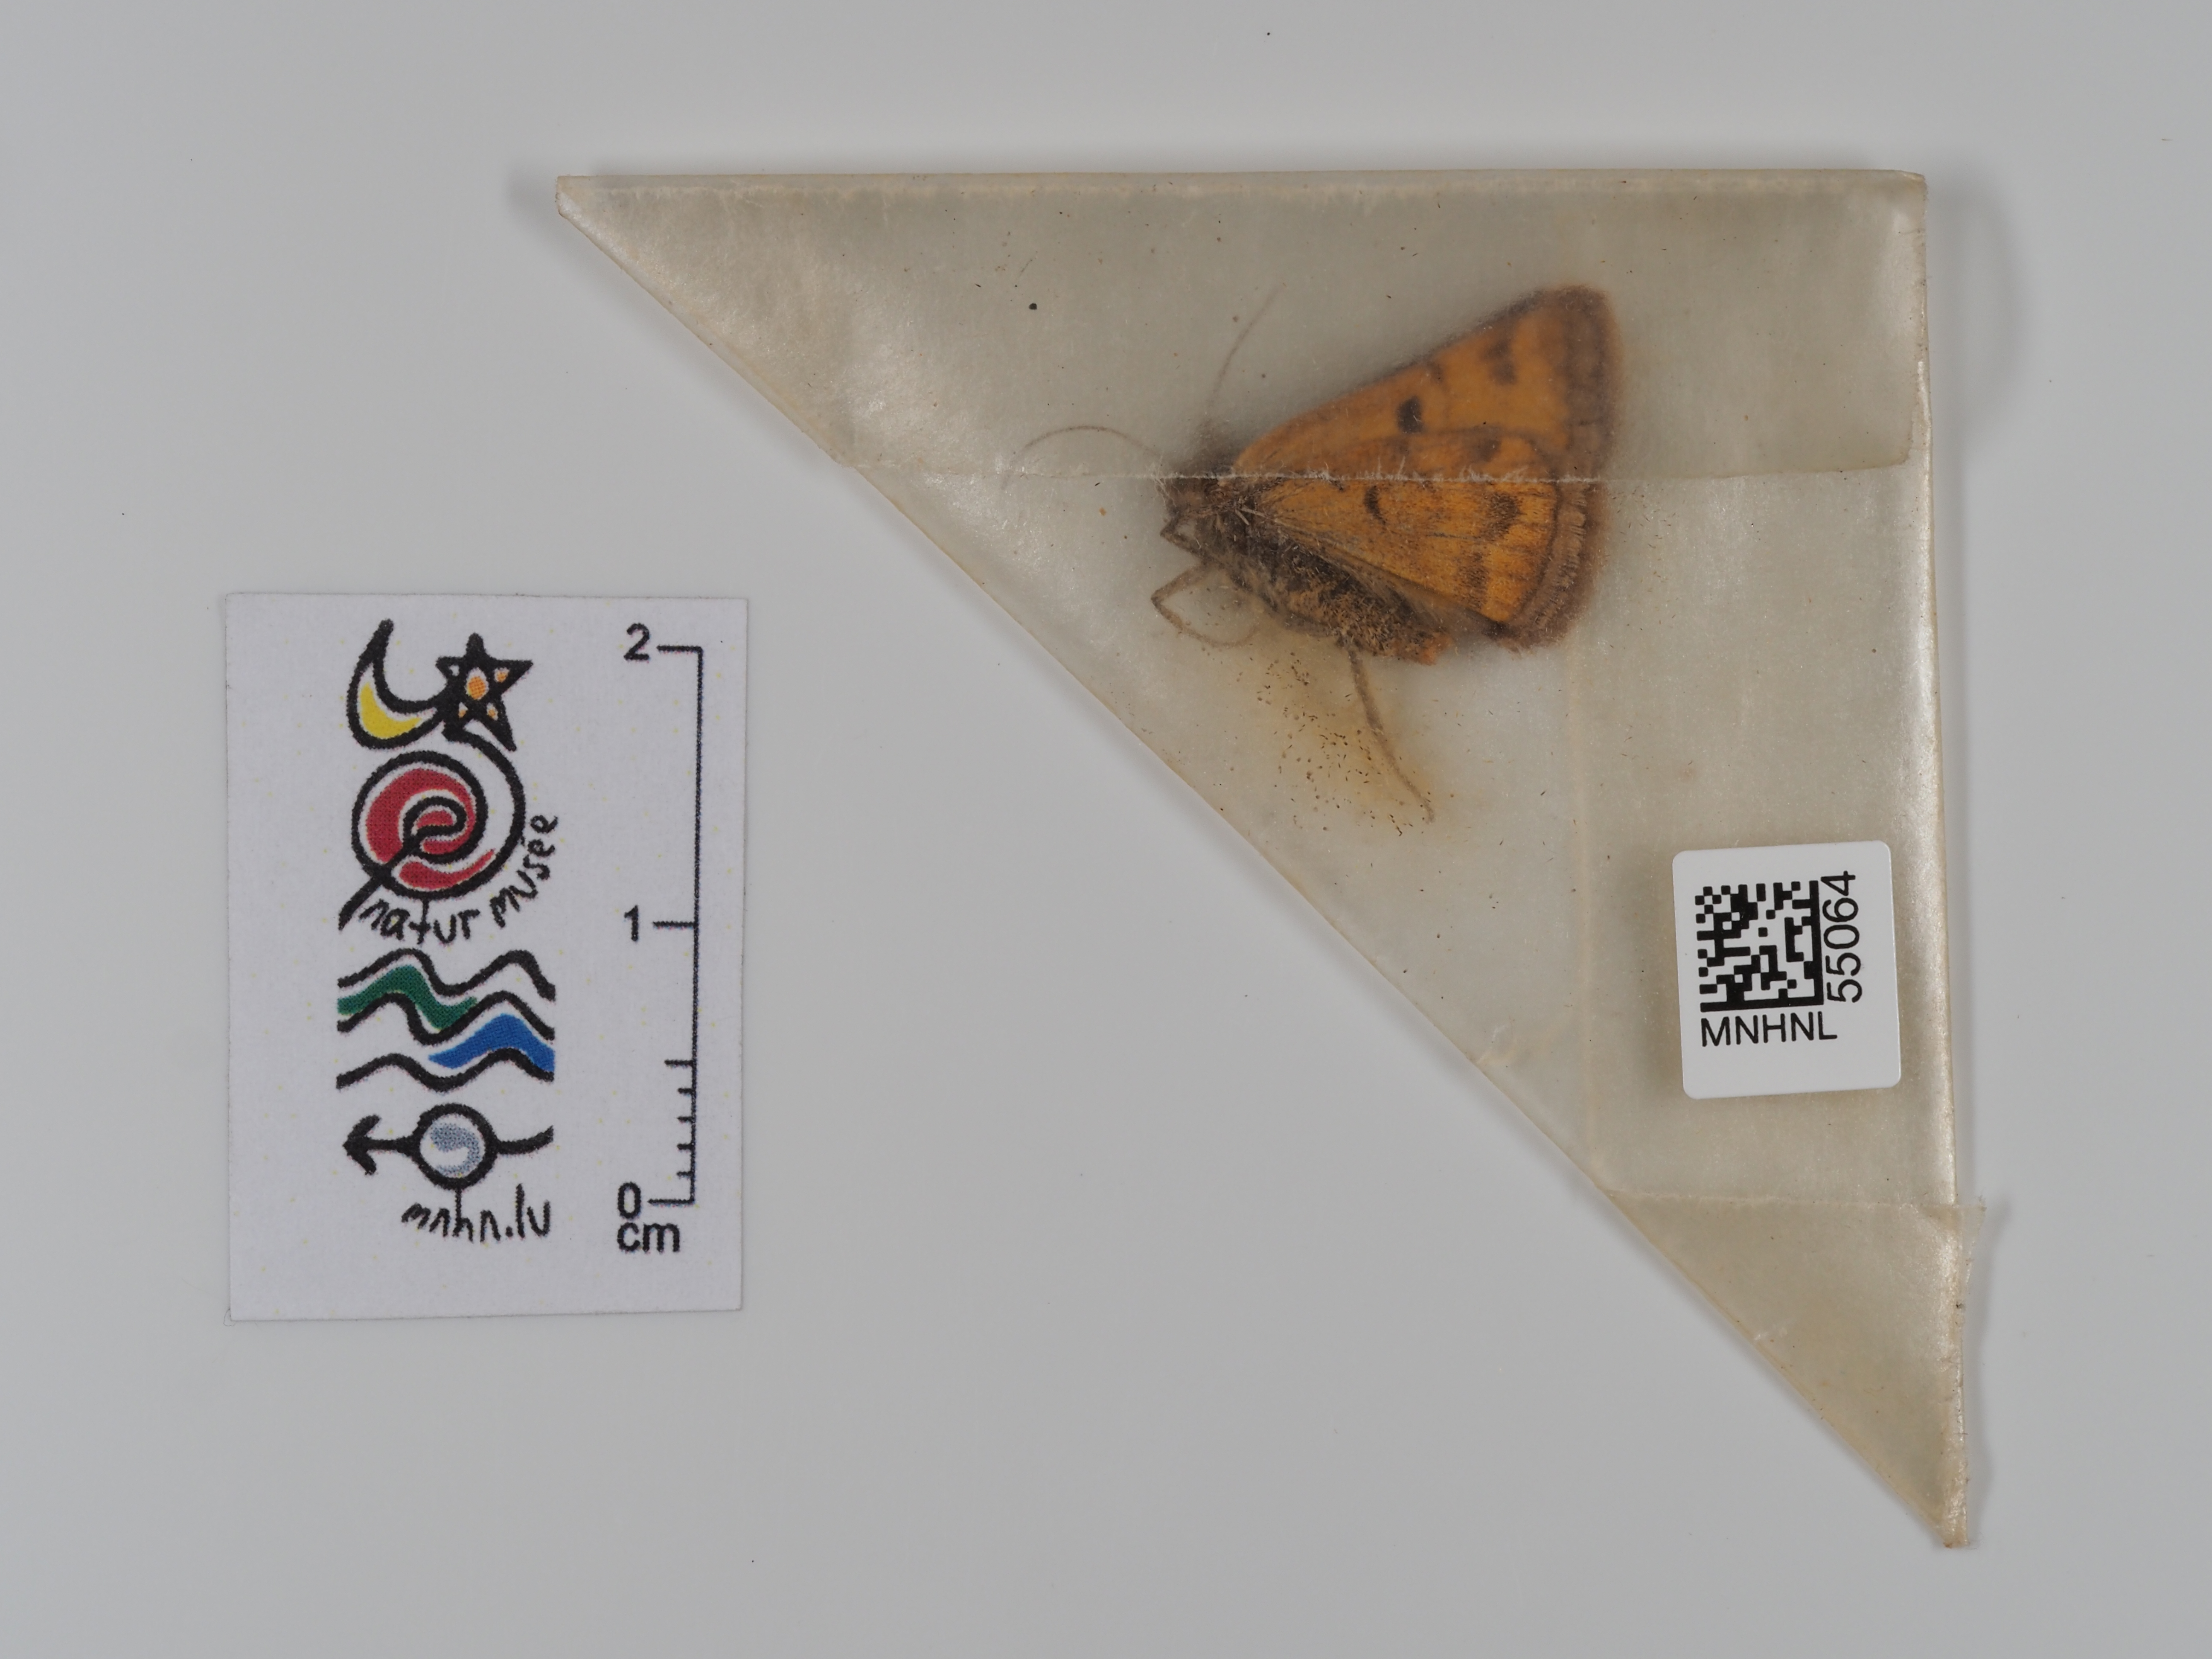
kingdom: Animalia
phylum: Arthropoda
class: Insecta
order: Lepidoptera
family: Erebidae
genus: Euclidia
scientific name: Euclidia glyphica
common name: Burnet companion
